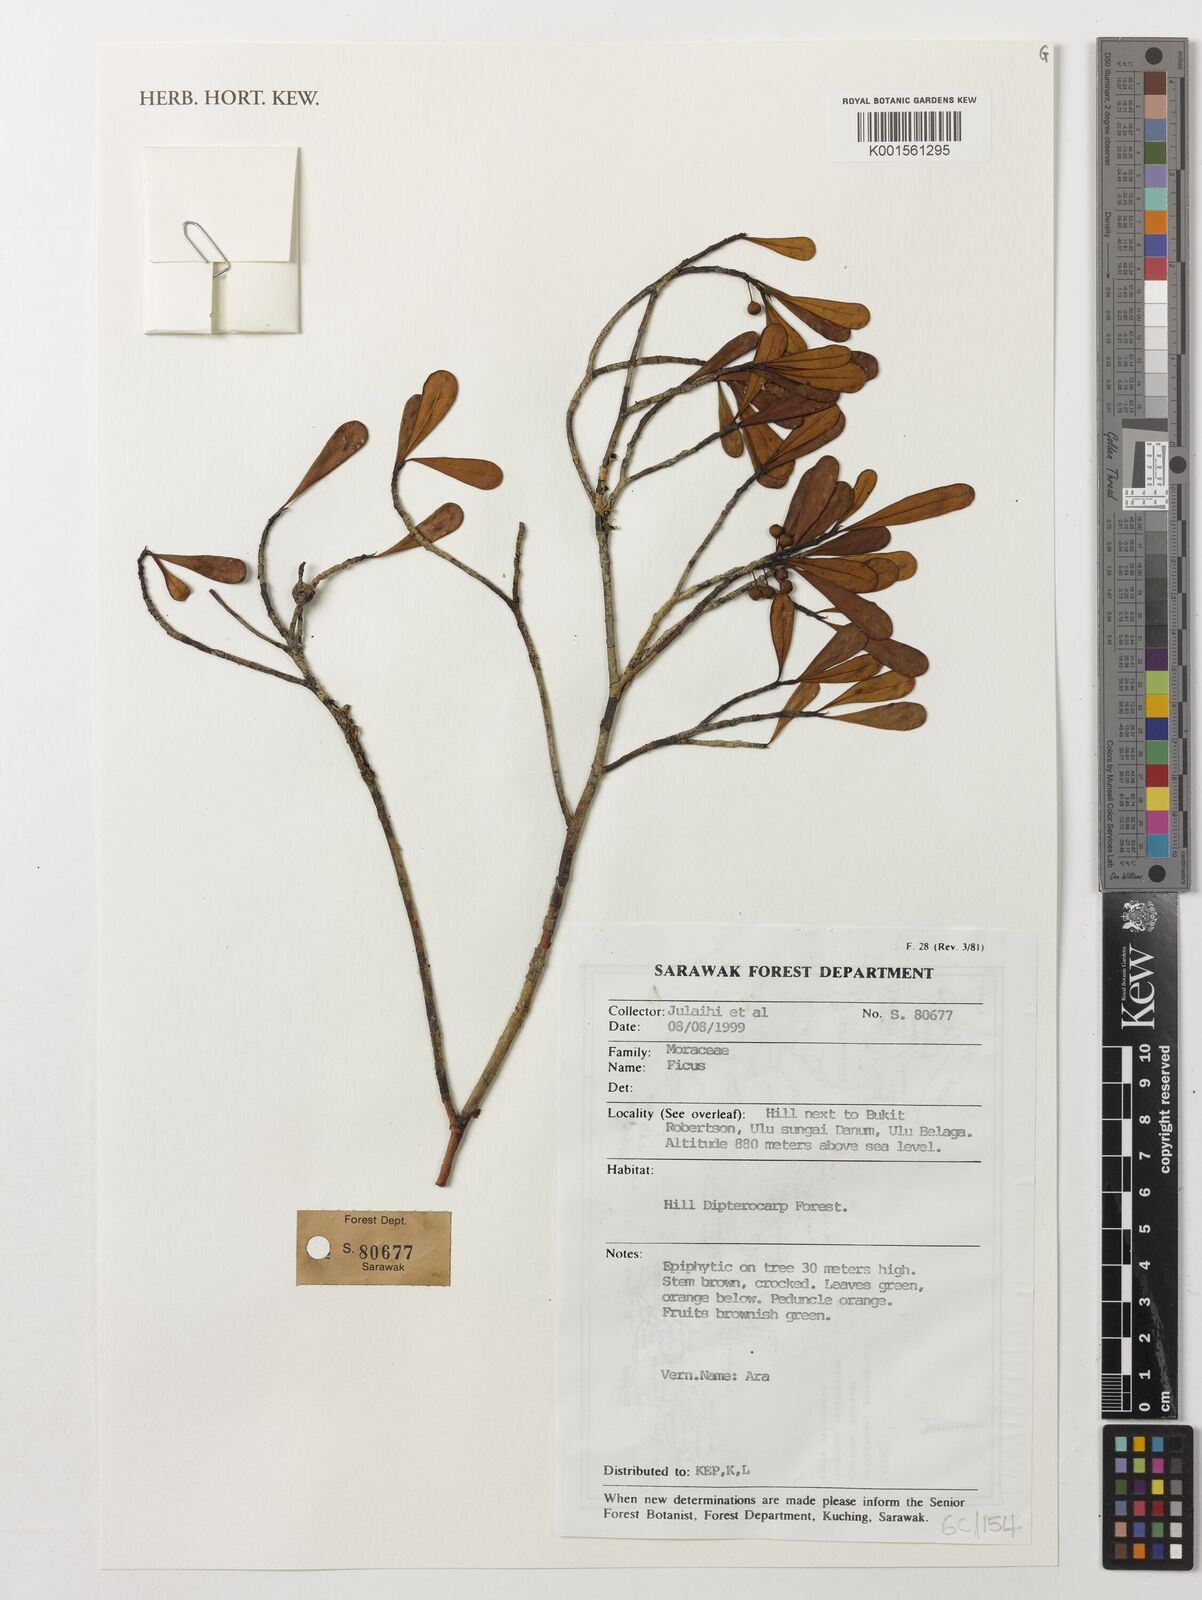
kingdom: Plantae
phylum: Tracheophyta
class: Magnoliopsida
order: Rosales
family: Moraceae
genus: Ficus
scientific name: Ficus
